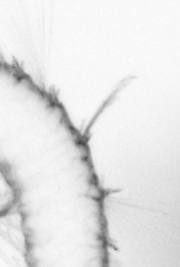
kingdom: Animalia
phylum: Arthropoda
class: Copepoda
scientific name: Copepoda
